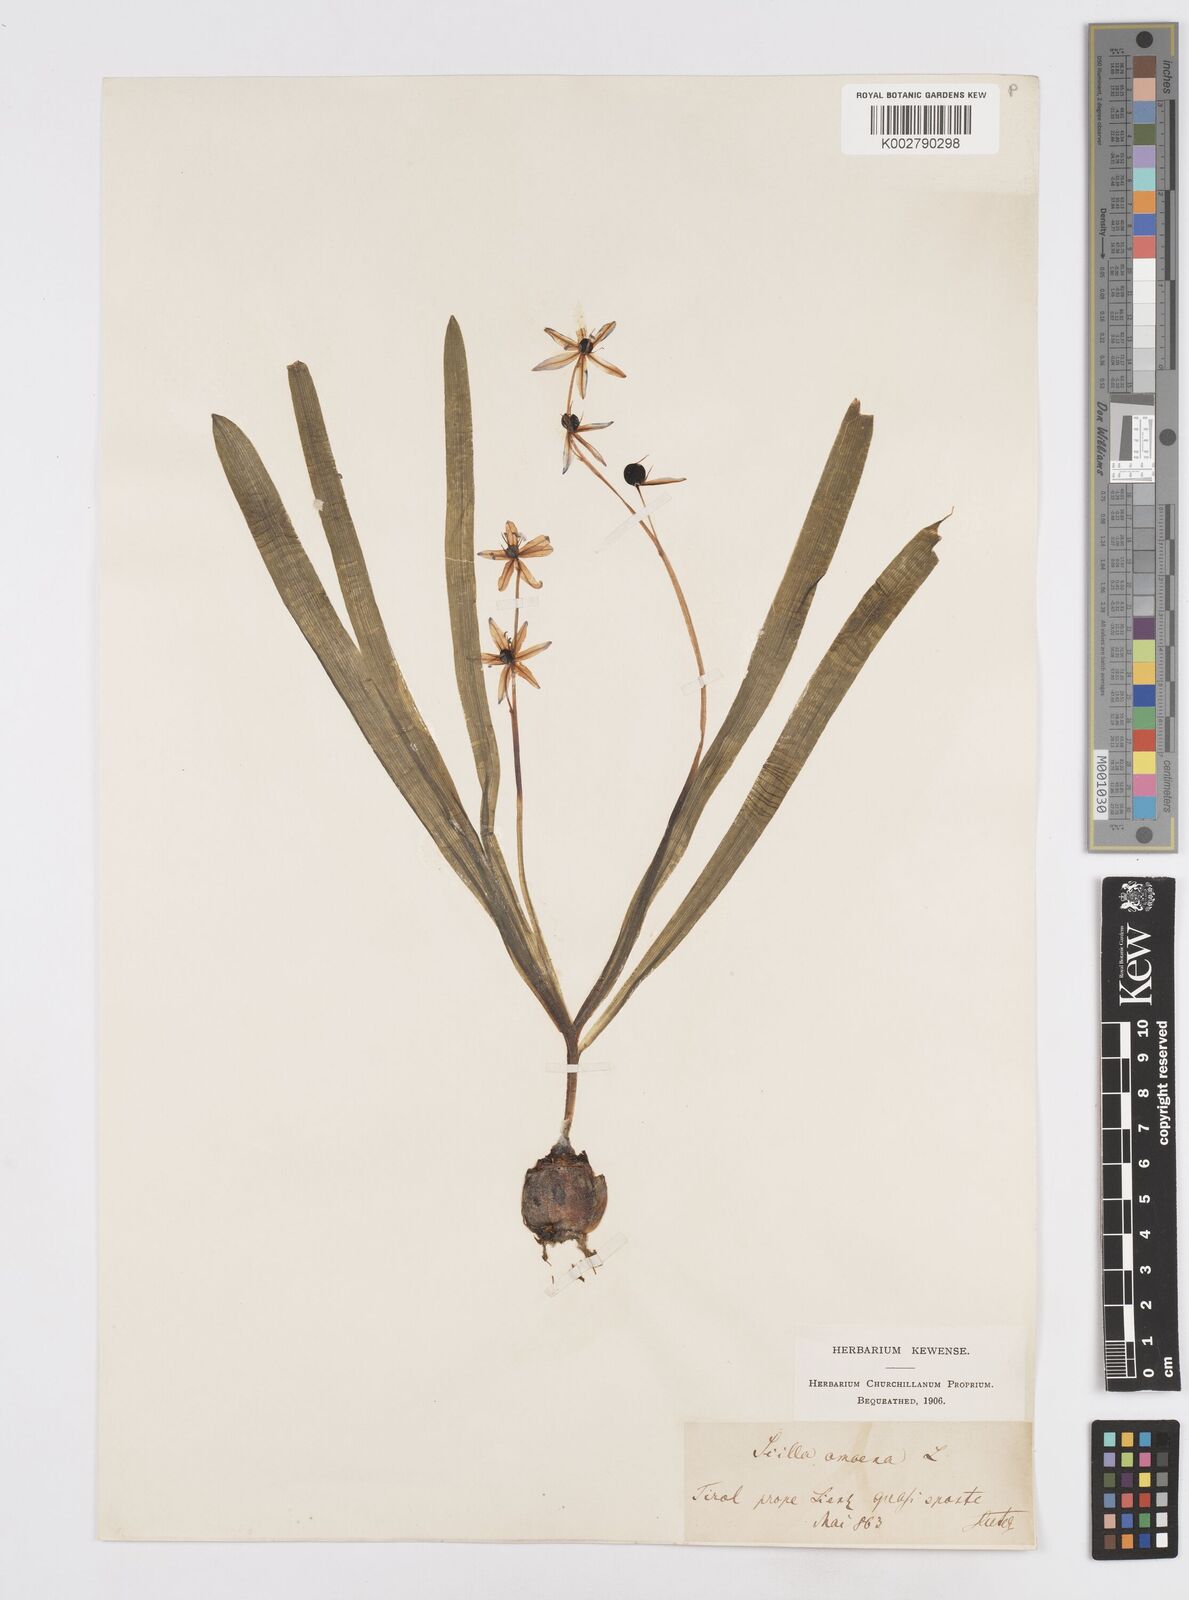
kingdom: Plantae
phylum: Tracheophyta
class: Liliopsida
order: Asparagales
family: Asparagaceae
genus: Scilla
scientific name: Scilla amoena
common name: Star-hyacinth
